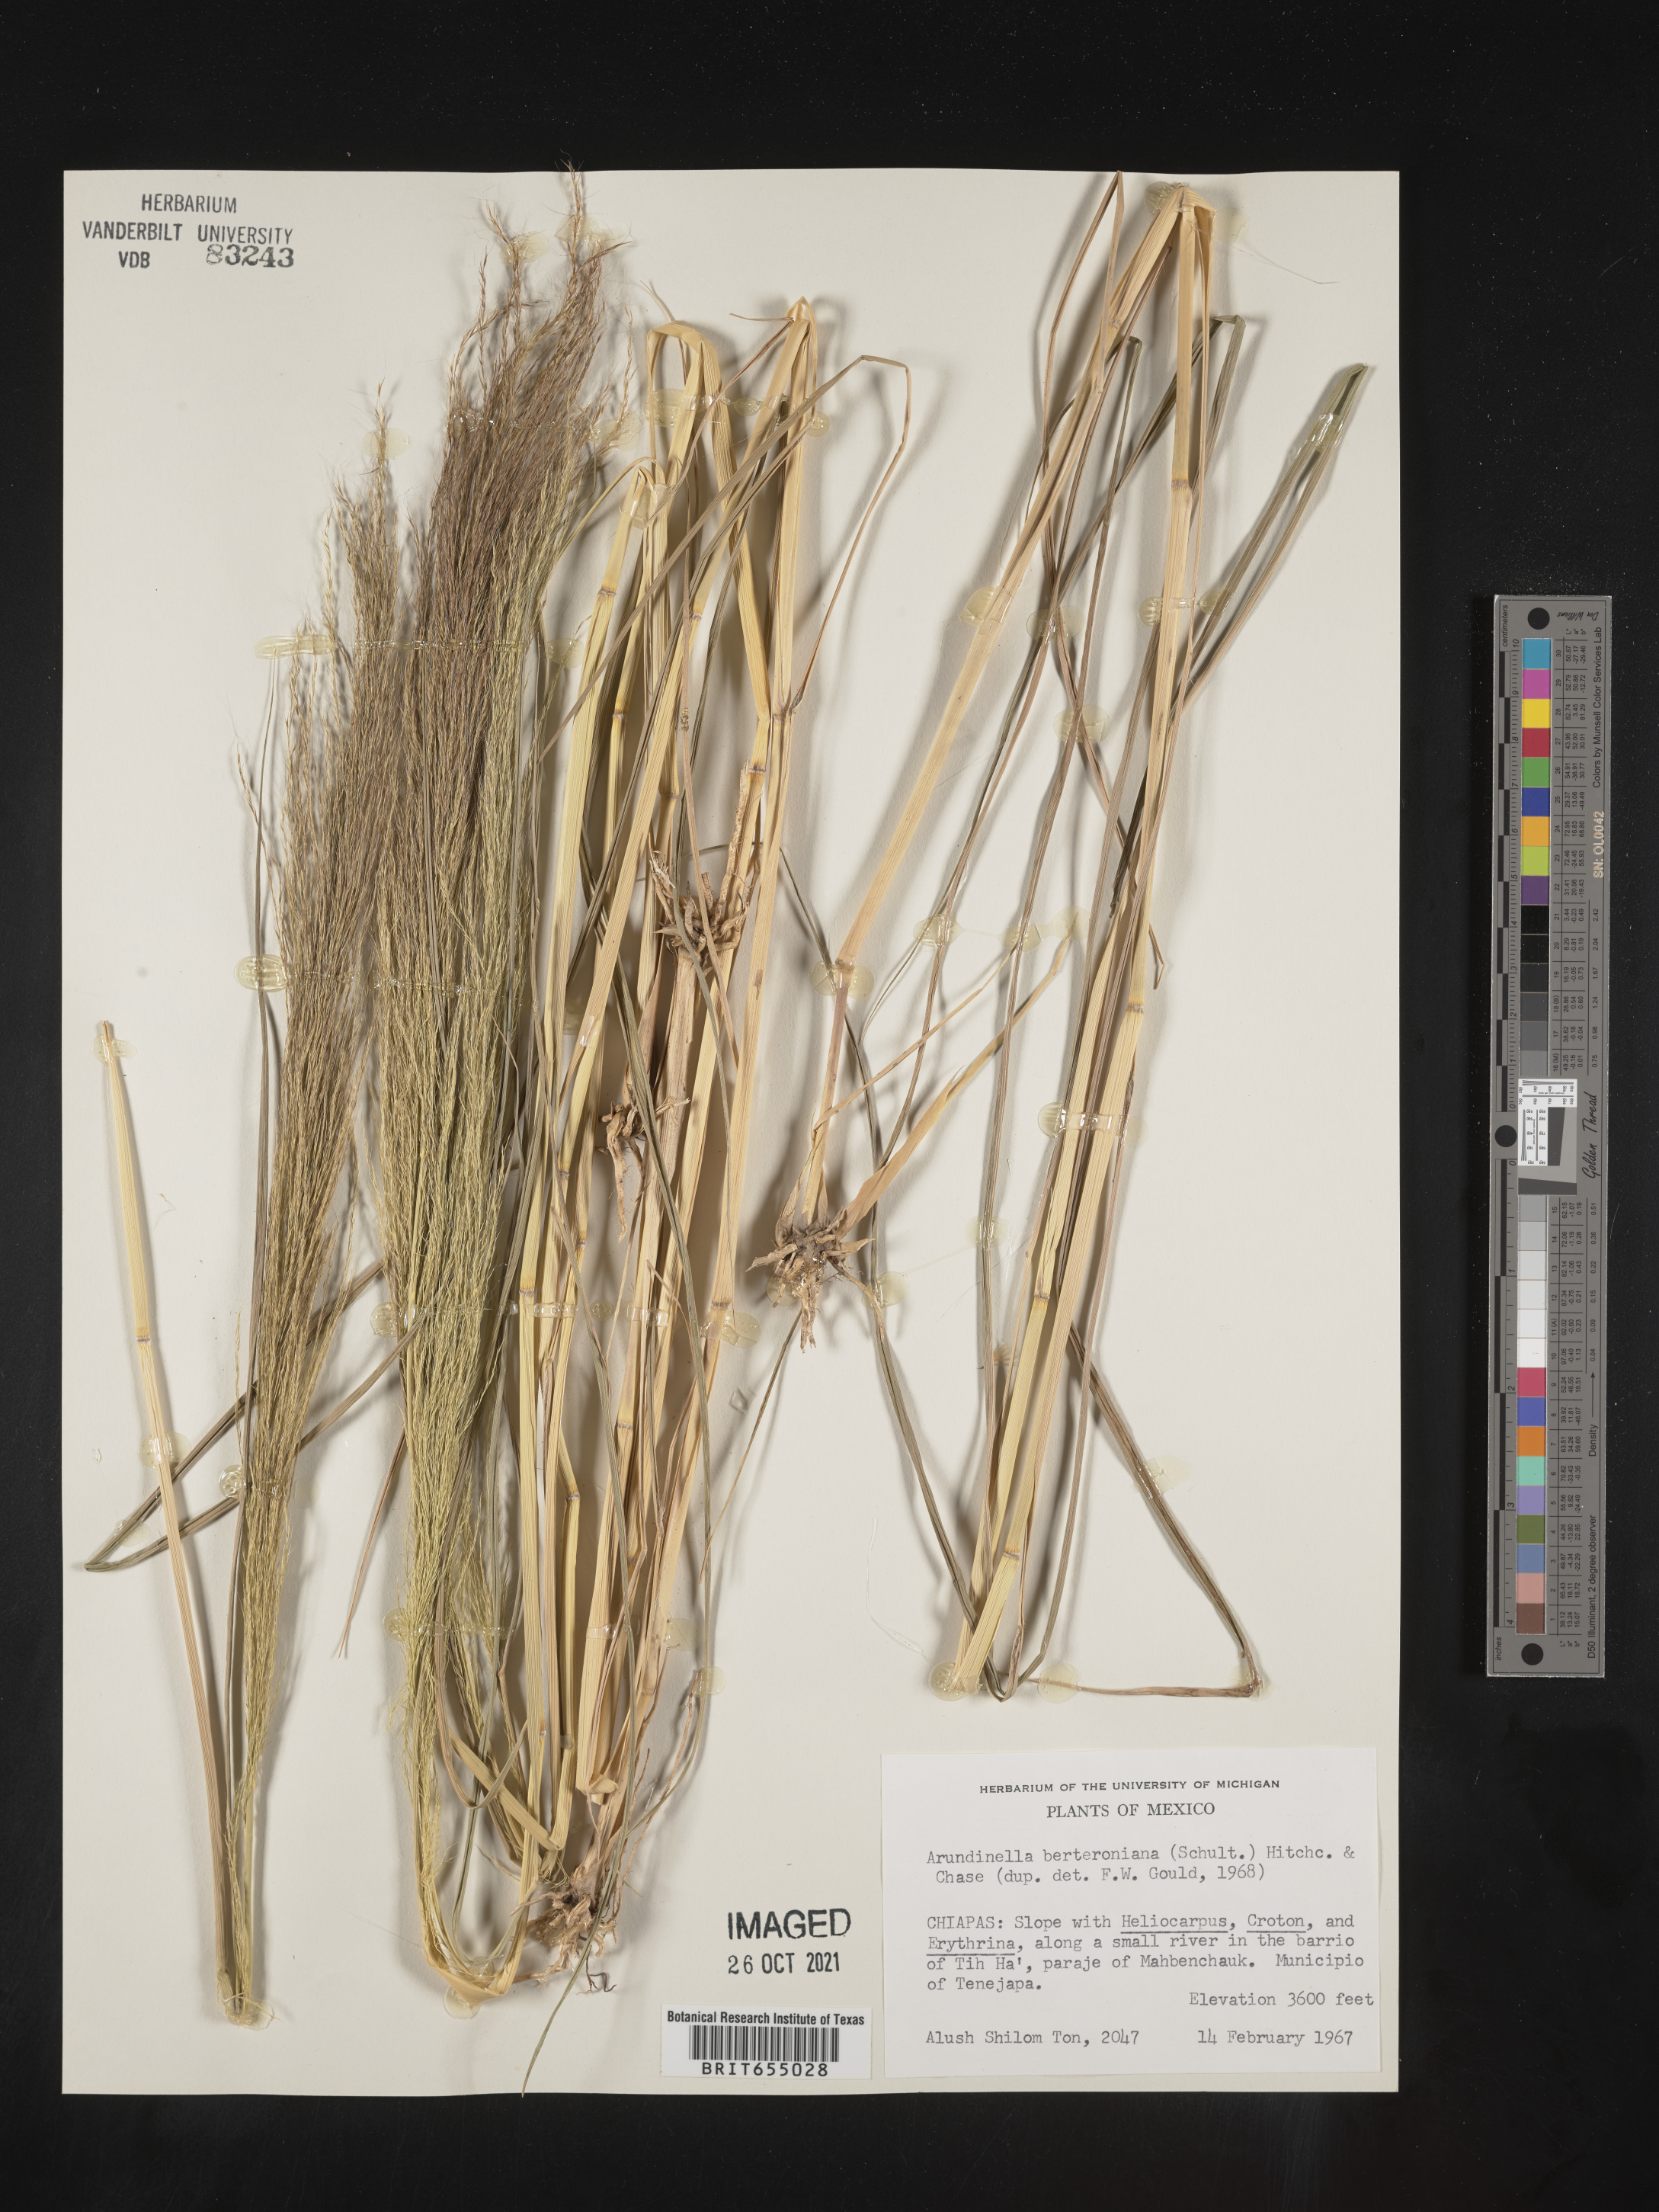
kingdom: Plantae
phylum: Tracheophyta
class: Liliopsida
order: Poales
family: Poaceae
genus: Arundinella
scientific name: Arundinella
